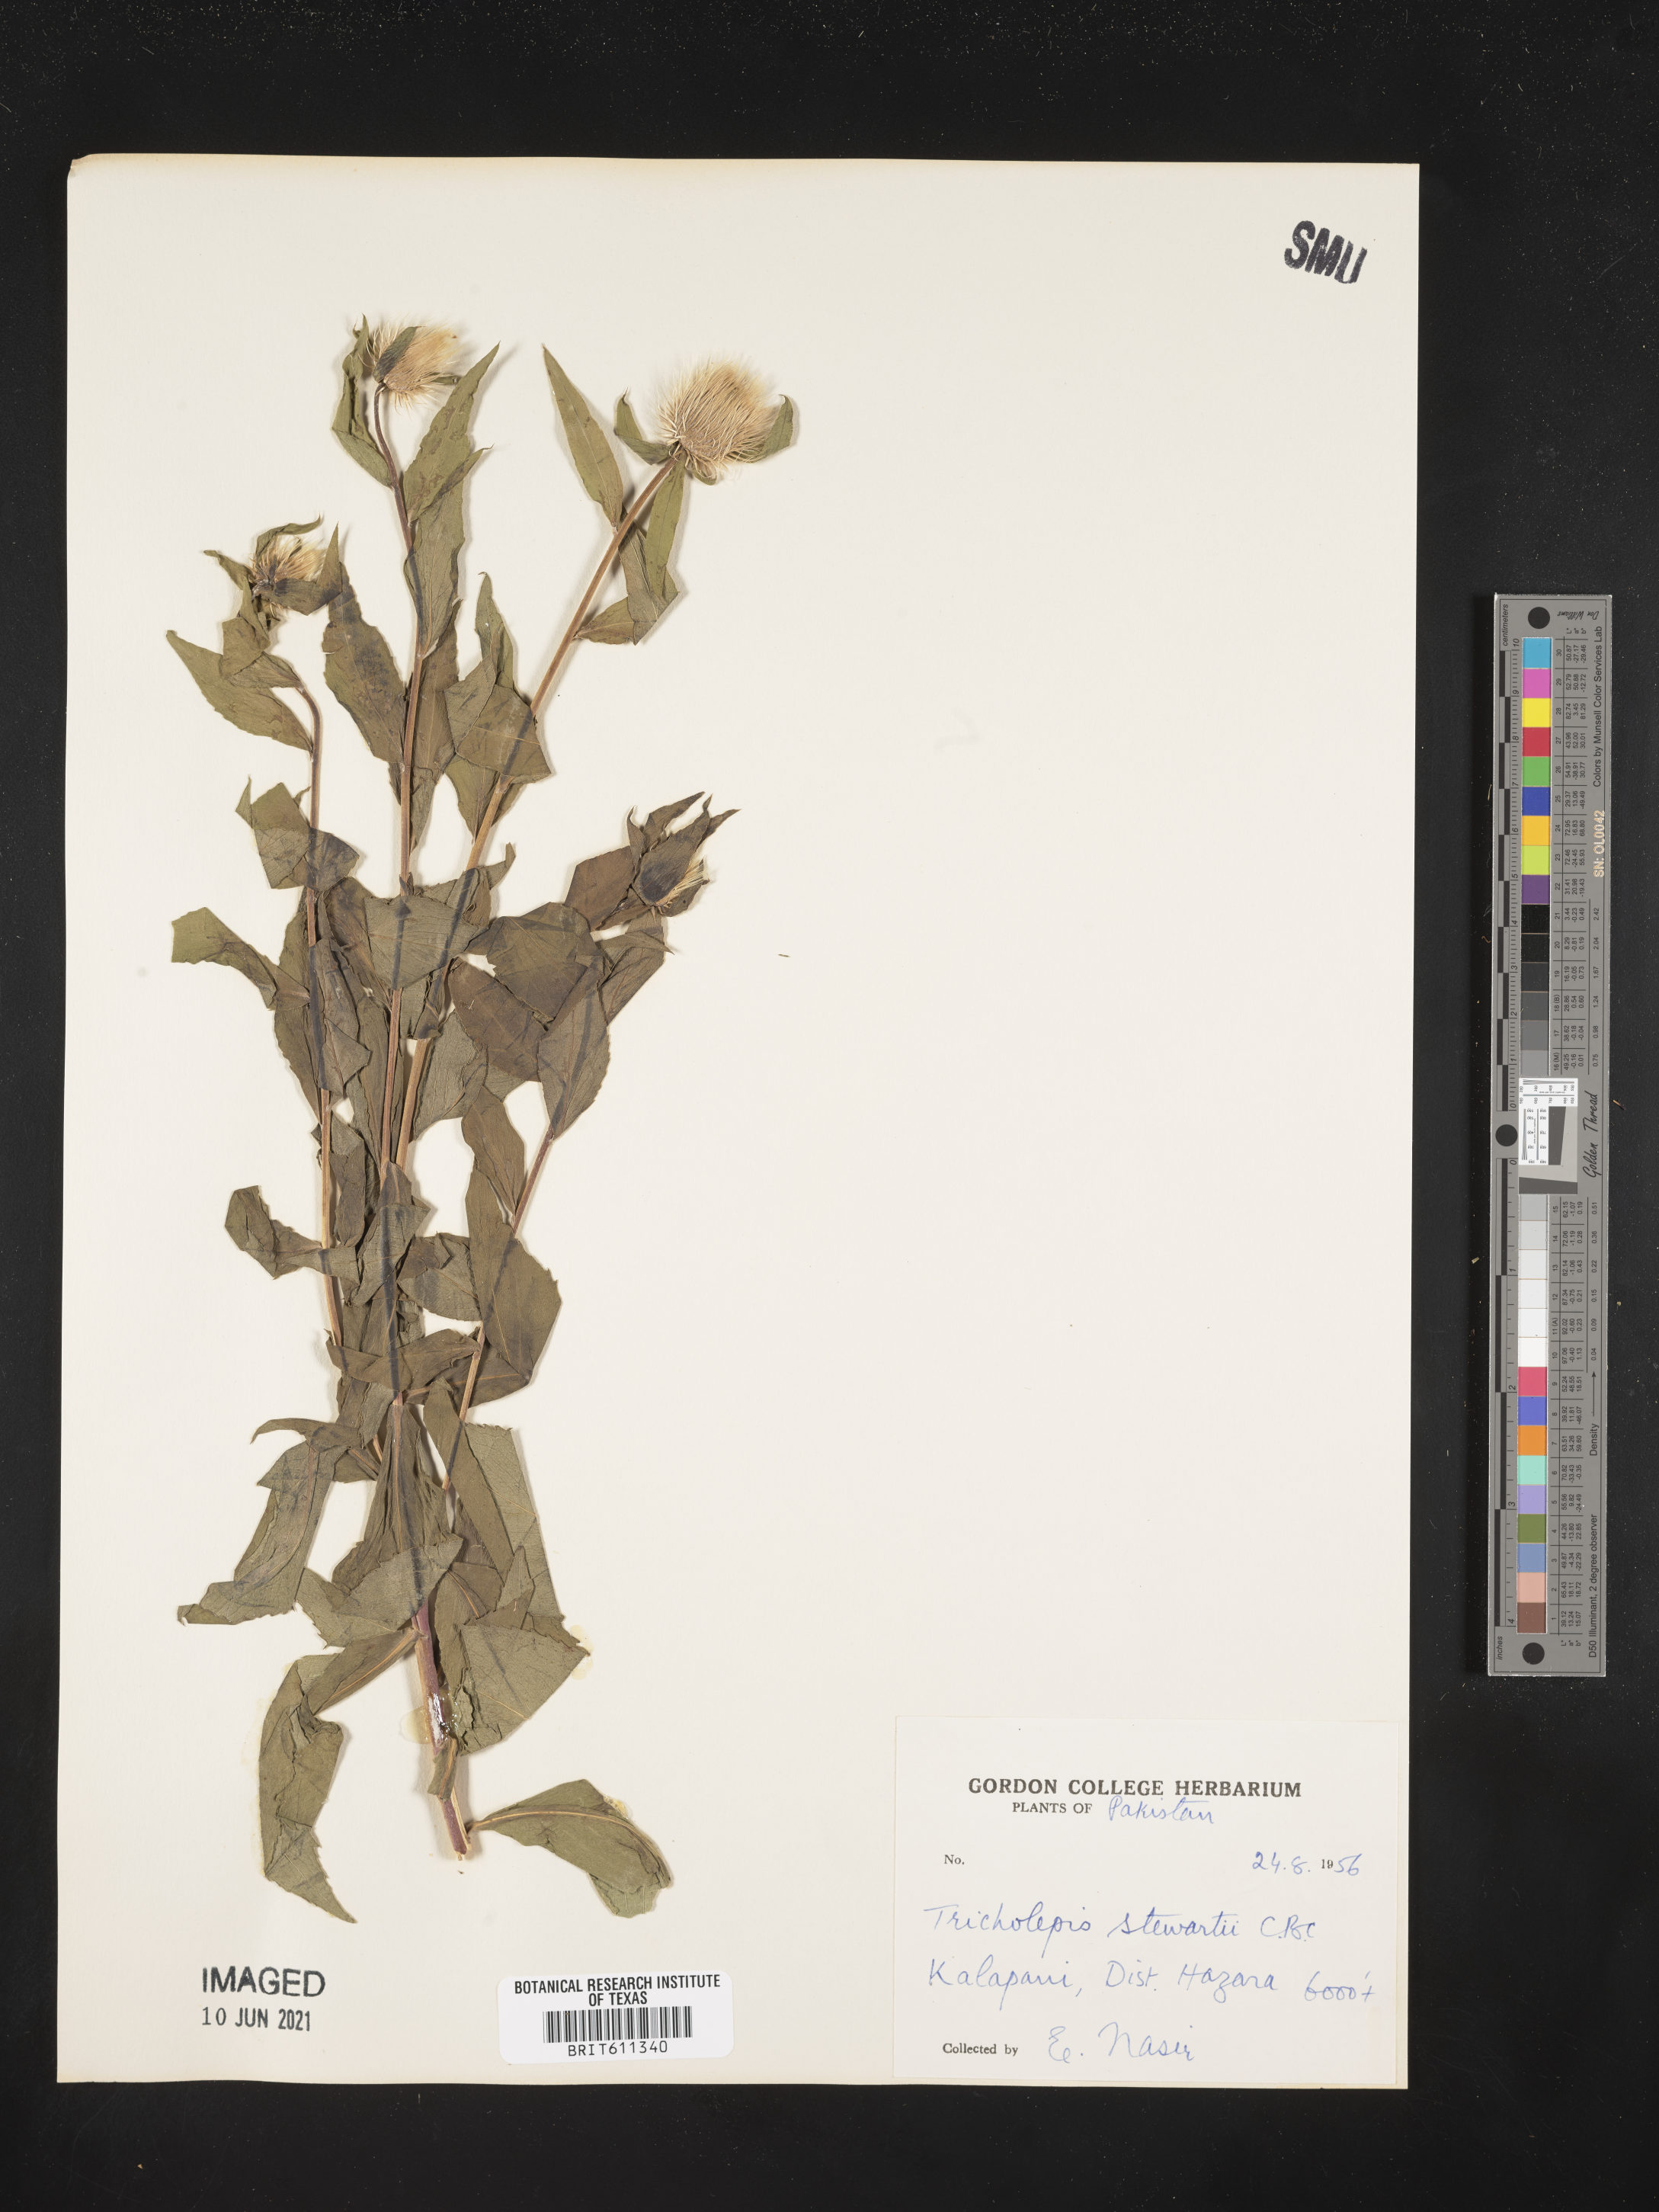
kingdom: Plantae
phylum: Tracheophyta
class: Magnoliopsida
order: Asterales
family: Asteraceae
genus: Tricholepis
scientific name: Tricholepis stewartii
